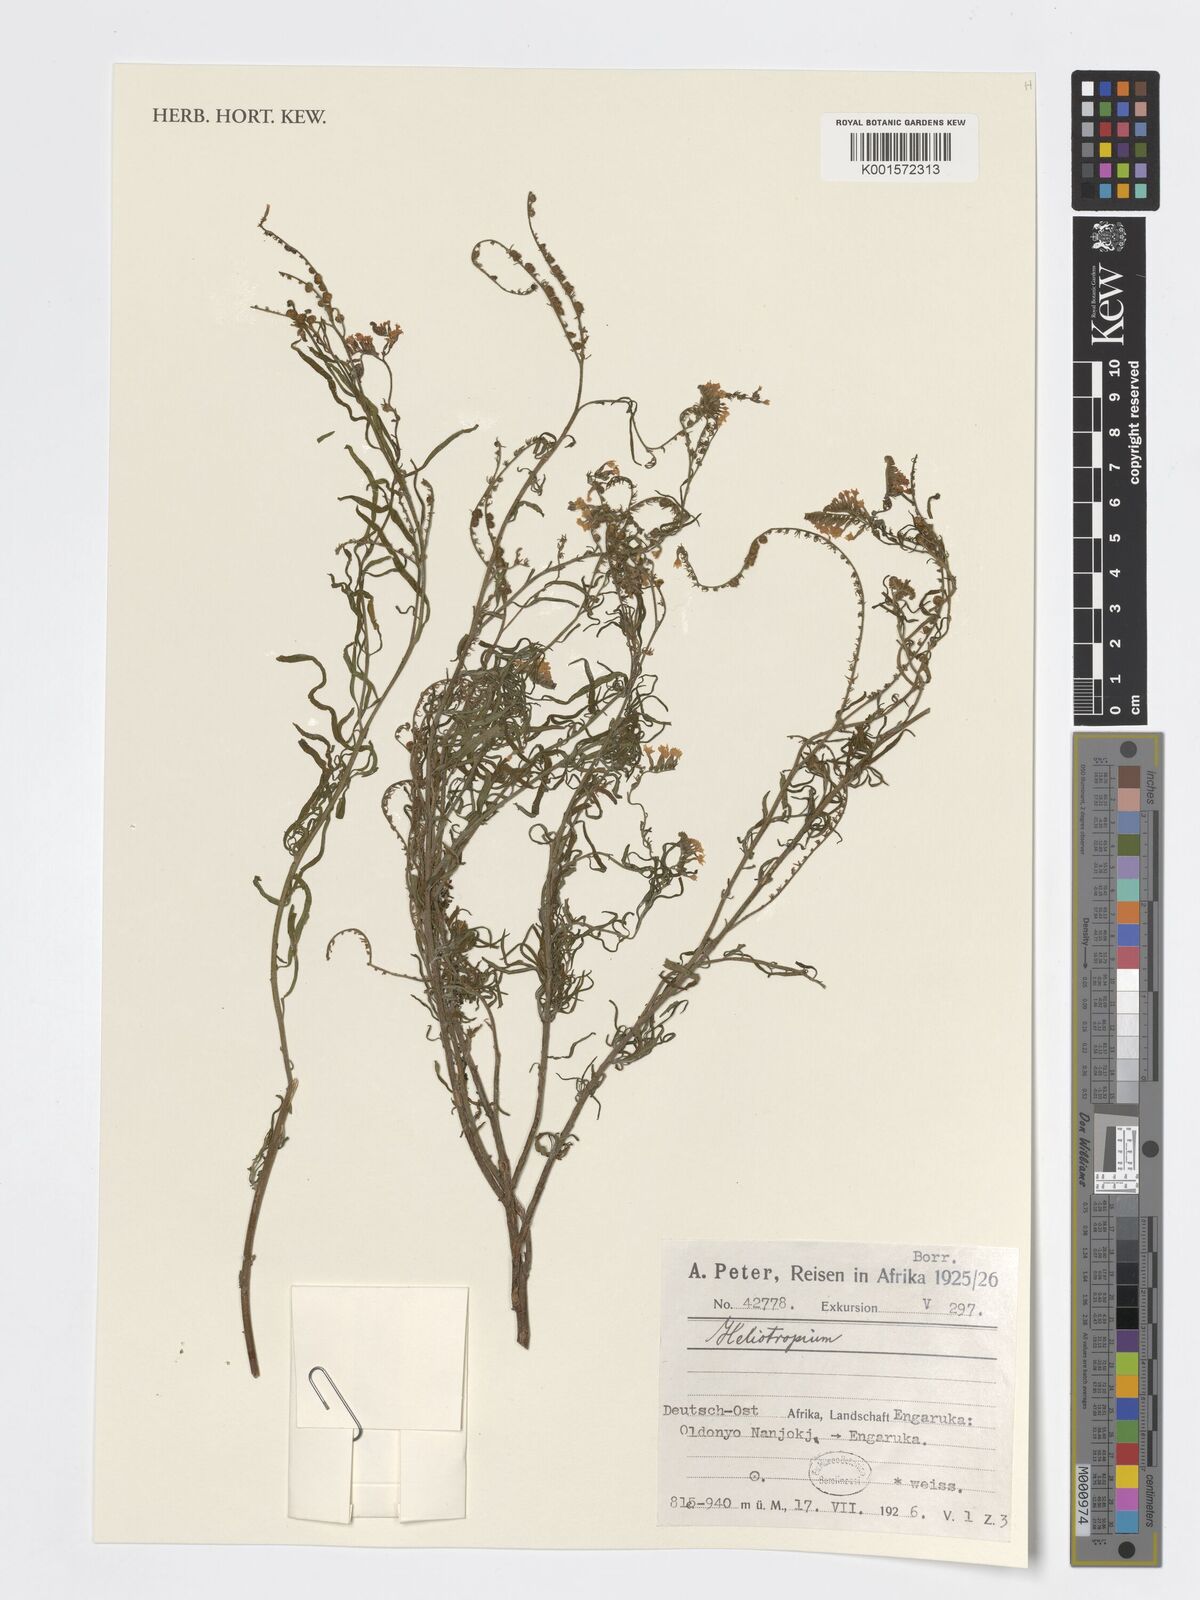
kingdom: Plantae
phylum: Tracheophyta
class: Magnoliopsida
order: Boraginales
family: Heliotropiaceae
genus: Heliotropium
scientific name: Heliotropium
